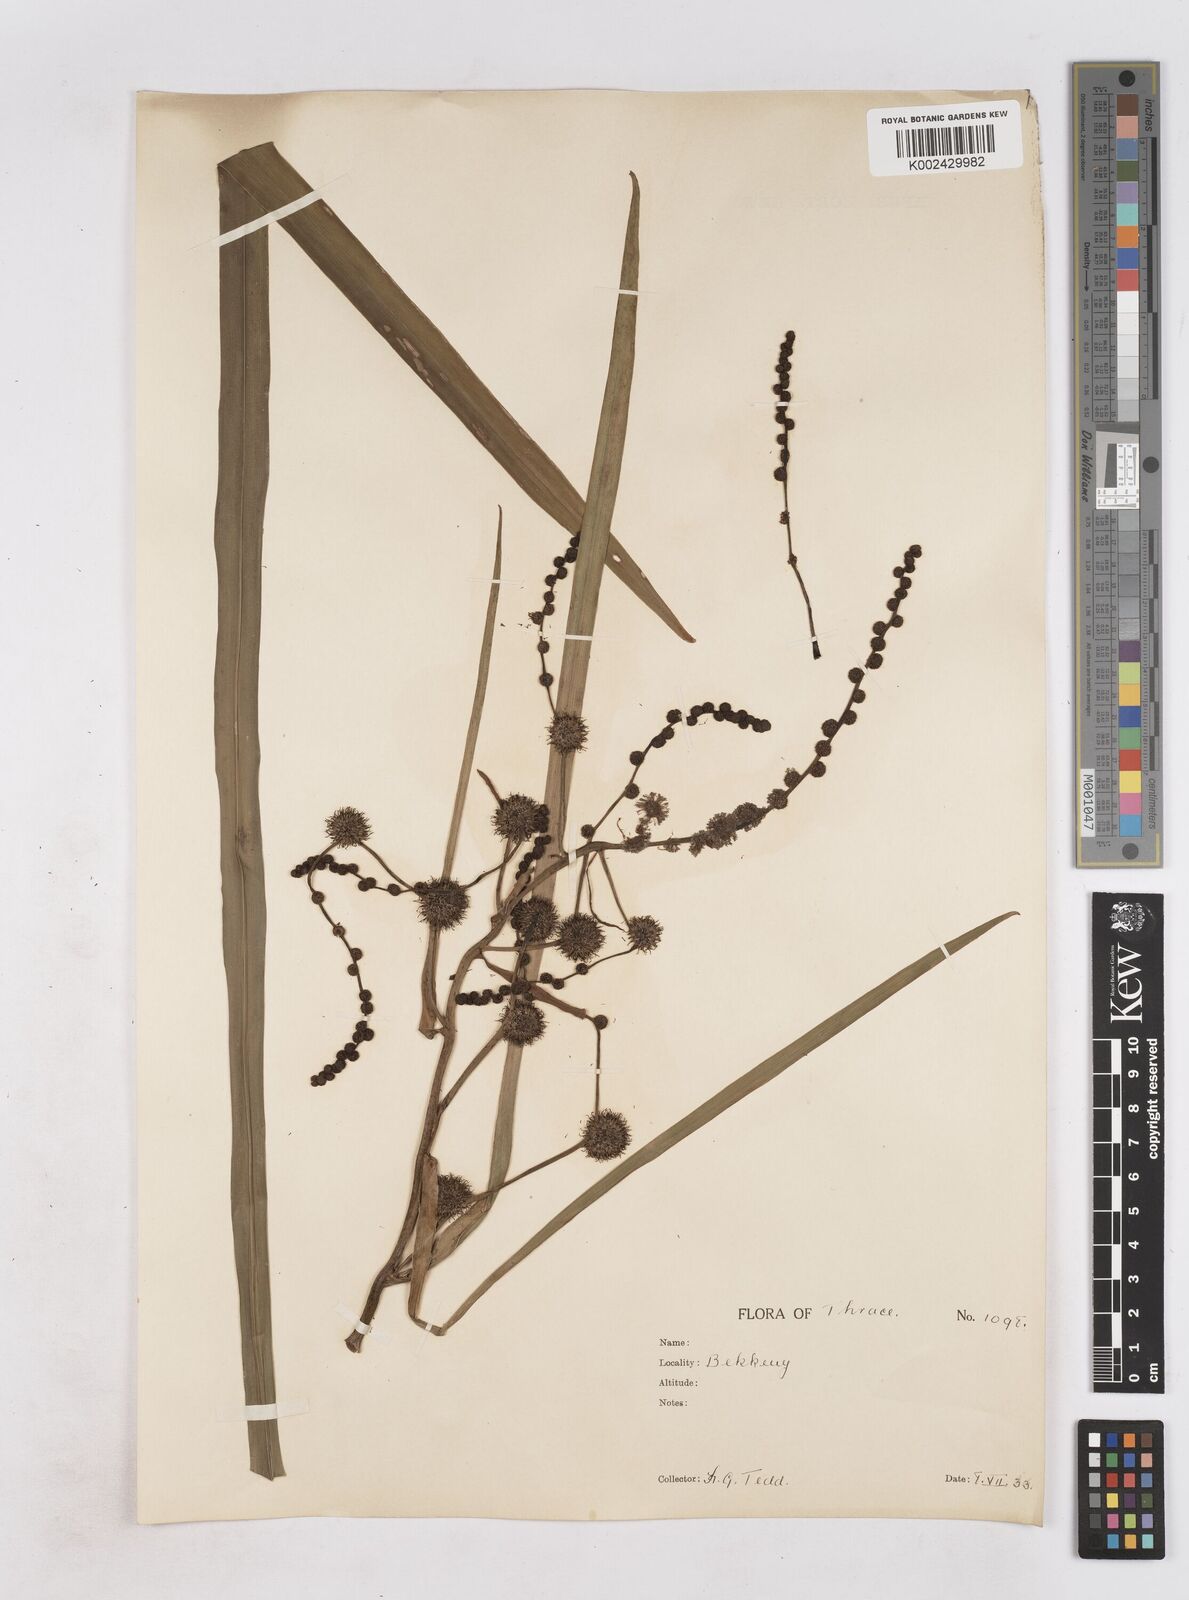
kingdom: Plantae
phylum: Tracheophyta
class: Liliopsida
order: Poales
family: Typhaceae
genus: Sparganium
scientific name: Sparganium erectum
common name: Branched bur-reed
